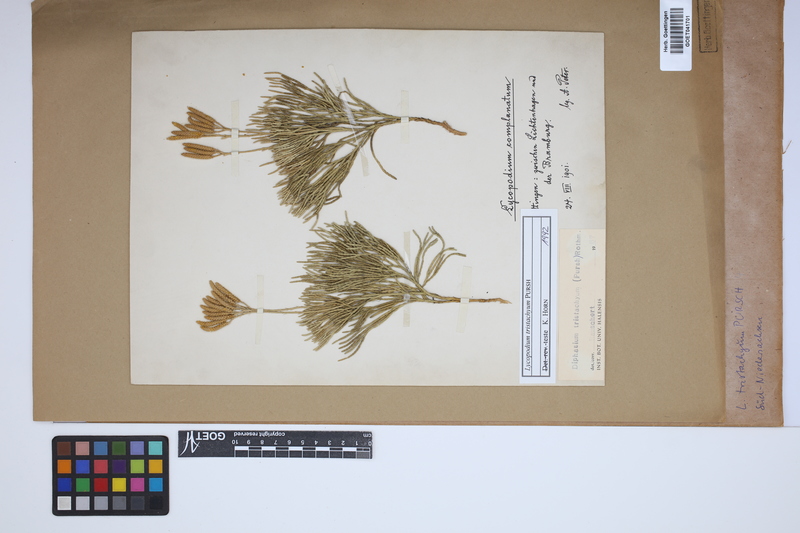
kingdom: Plantae
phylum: Tracheophyta
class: Lycopodiopsida
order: Lycopodiales
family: Lycopodiaceae
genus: Diphasiastrum
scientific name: Diphasiastrum tristachyum
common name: Blue ground-cedar
